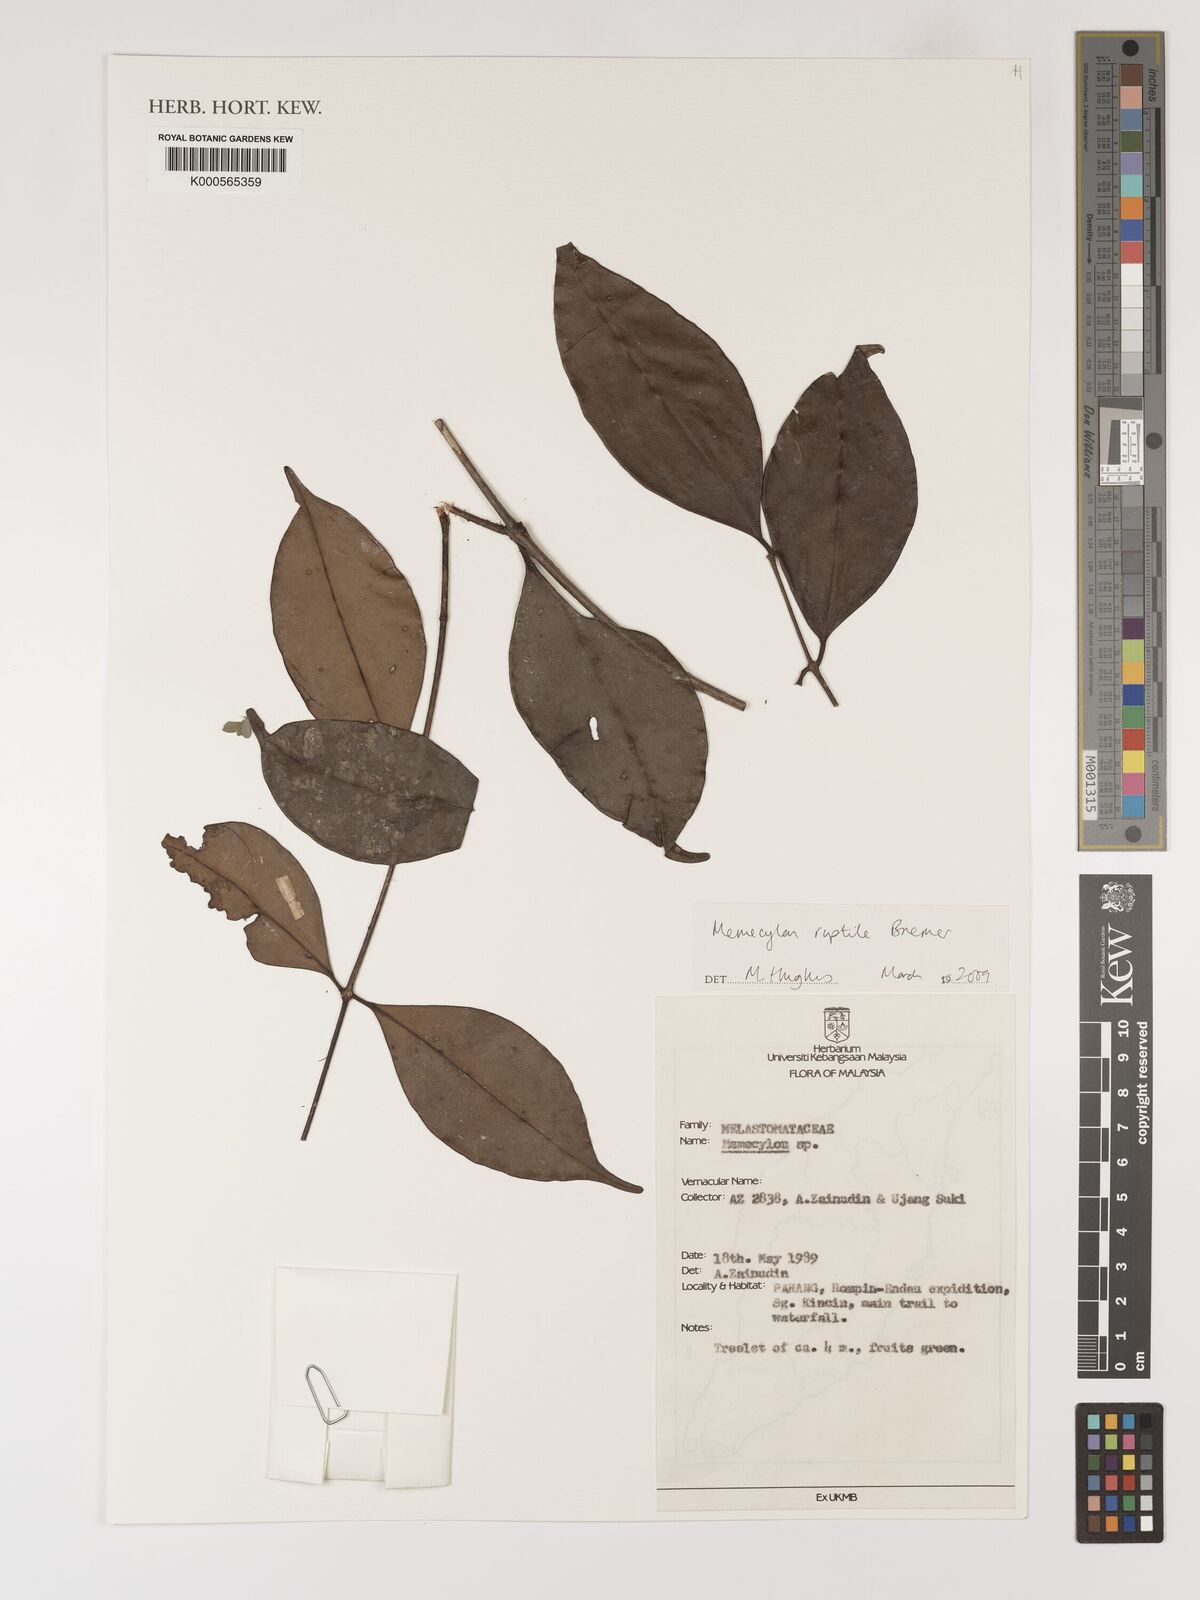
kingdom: Plantae
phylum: Tracheophyta
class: Magnoliopsida
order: Myrtales
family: Melastomataceae
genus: Memecylon
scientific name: Memecylon
